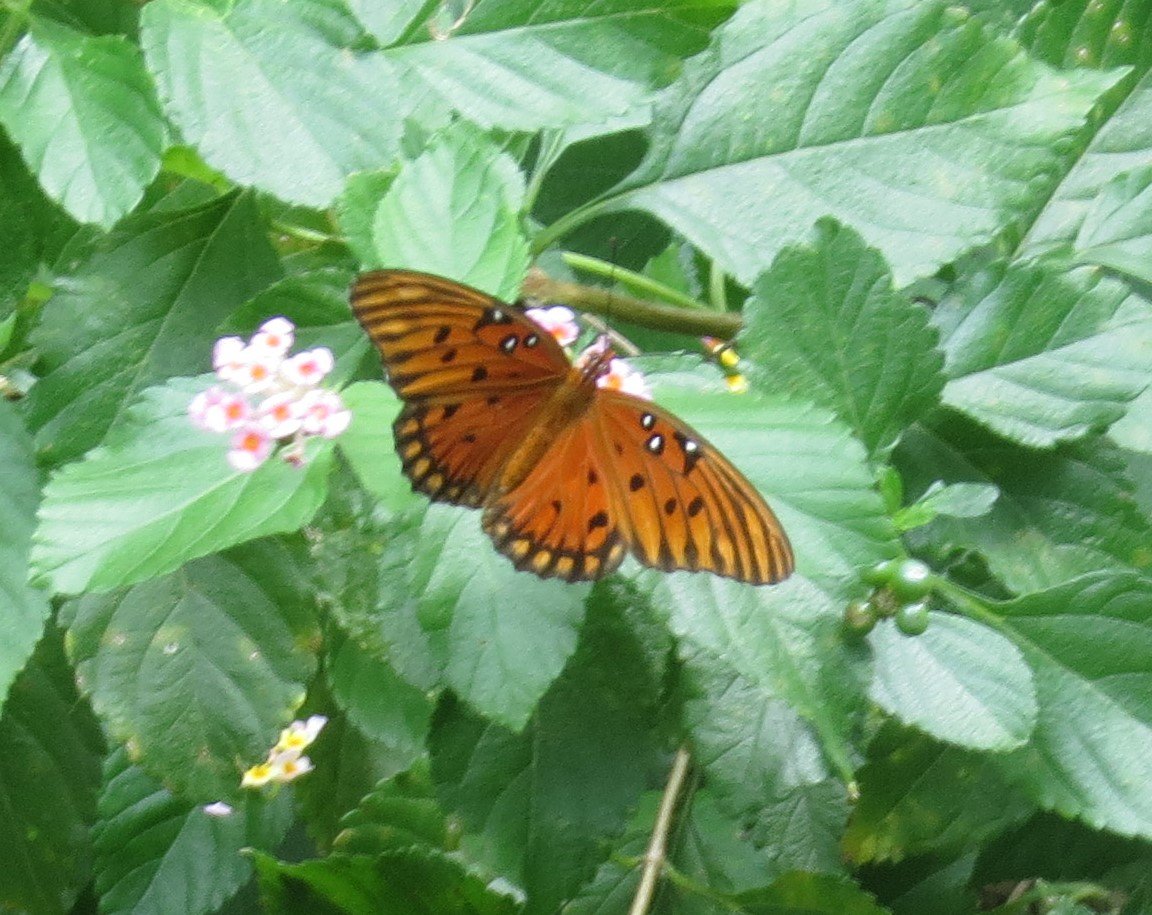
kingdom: Animalia
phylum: Arthropoda
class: Insecta
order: Lepidoptera
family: Nymphalidae
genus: Dione
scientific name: Dione vanillae
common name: Gulf Fritillary
